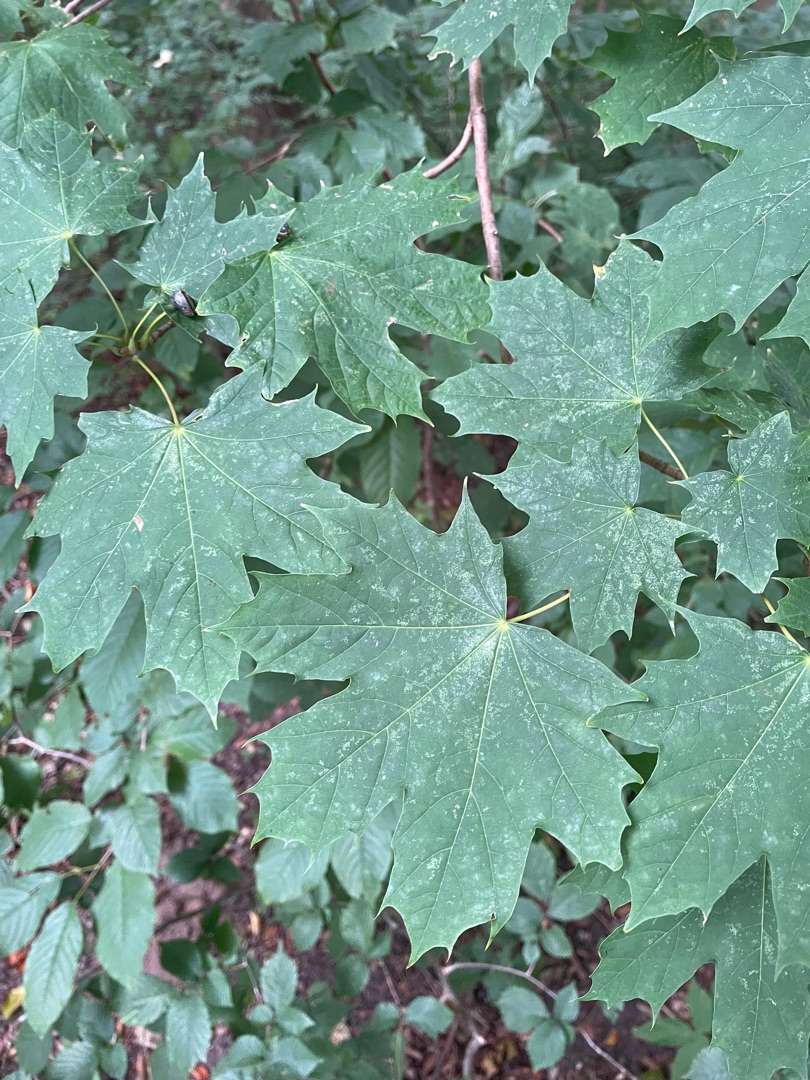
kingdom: Plantae
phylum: Tracheophyta
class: Magnoliopsida
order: Sapindales
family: Sapindaceae
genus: Acer
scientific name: Acer platanoides
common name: Spids-løn
